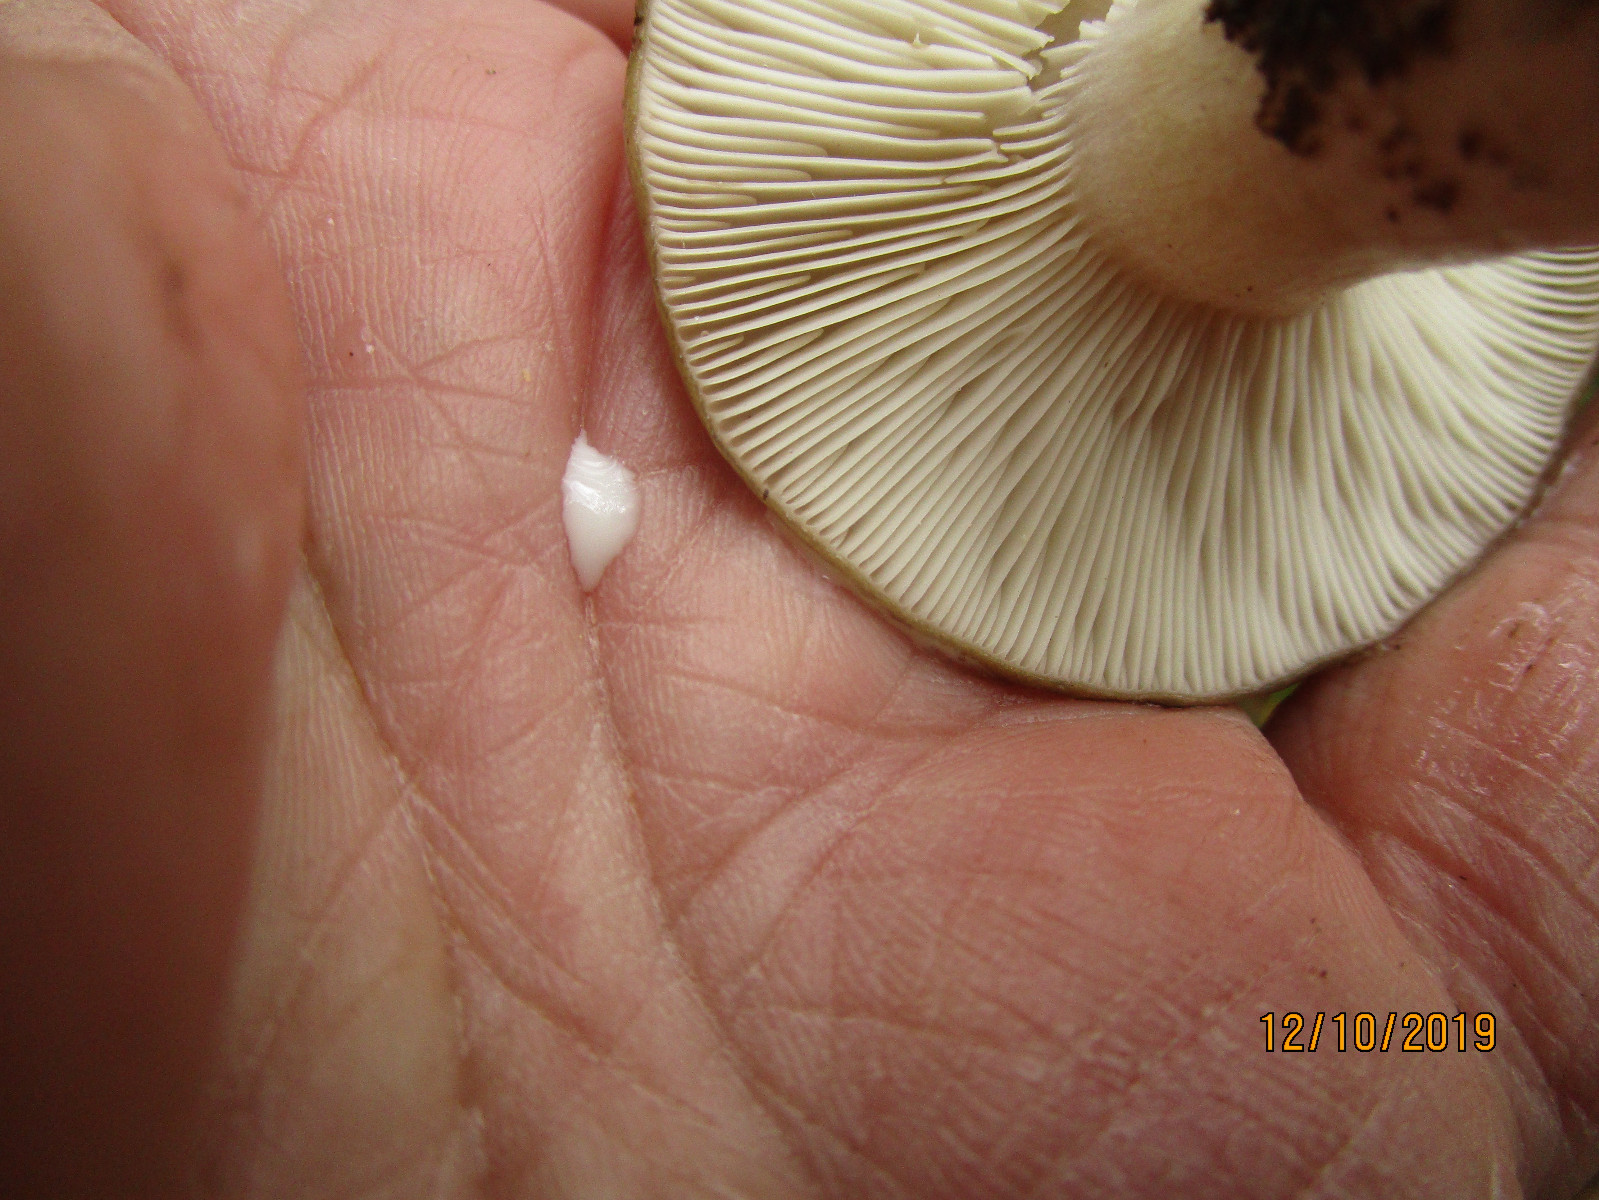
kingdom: Fungi
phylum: Basidiomycota
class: Agaricomycetes
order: Russulales
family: Russulaceae
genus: Lactarius
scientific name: Lactarius
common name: mælkehat
